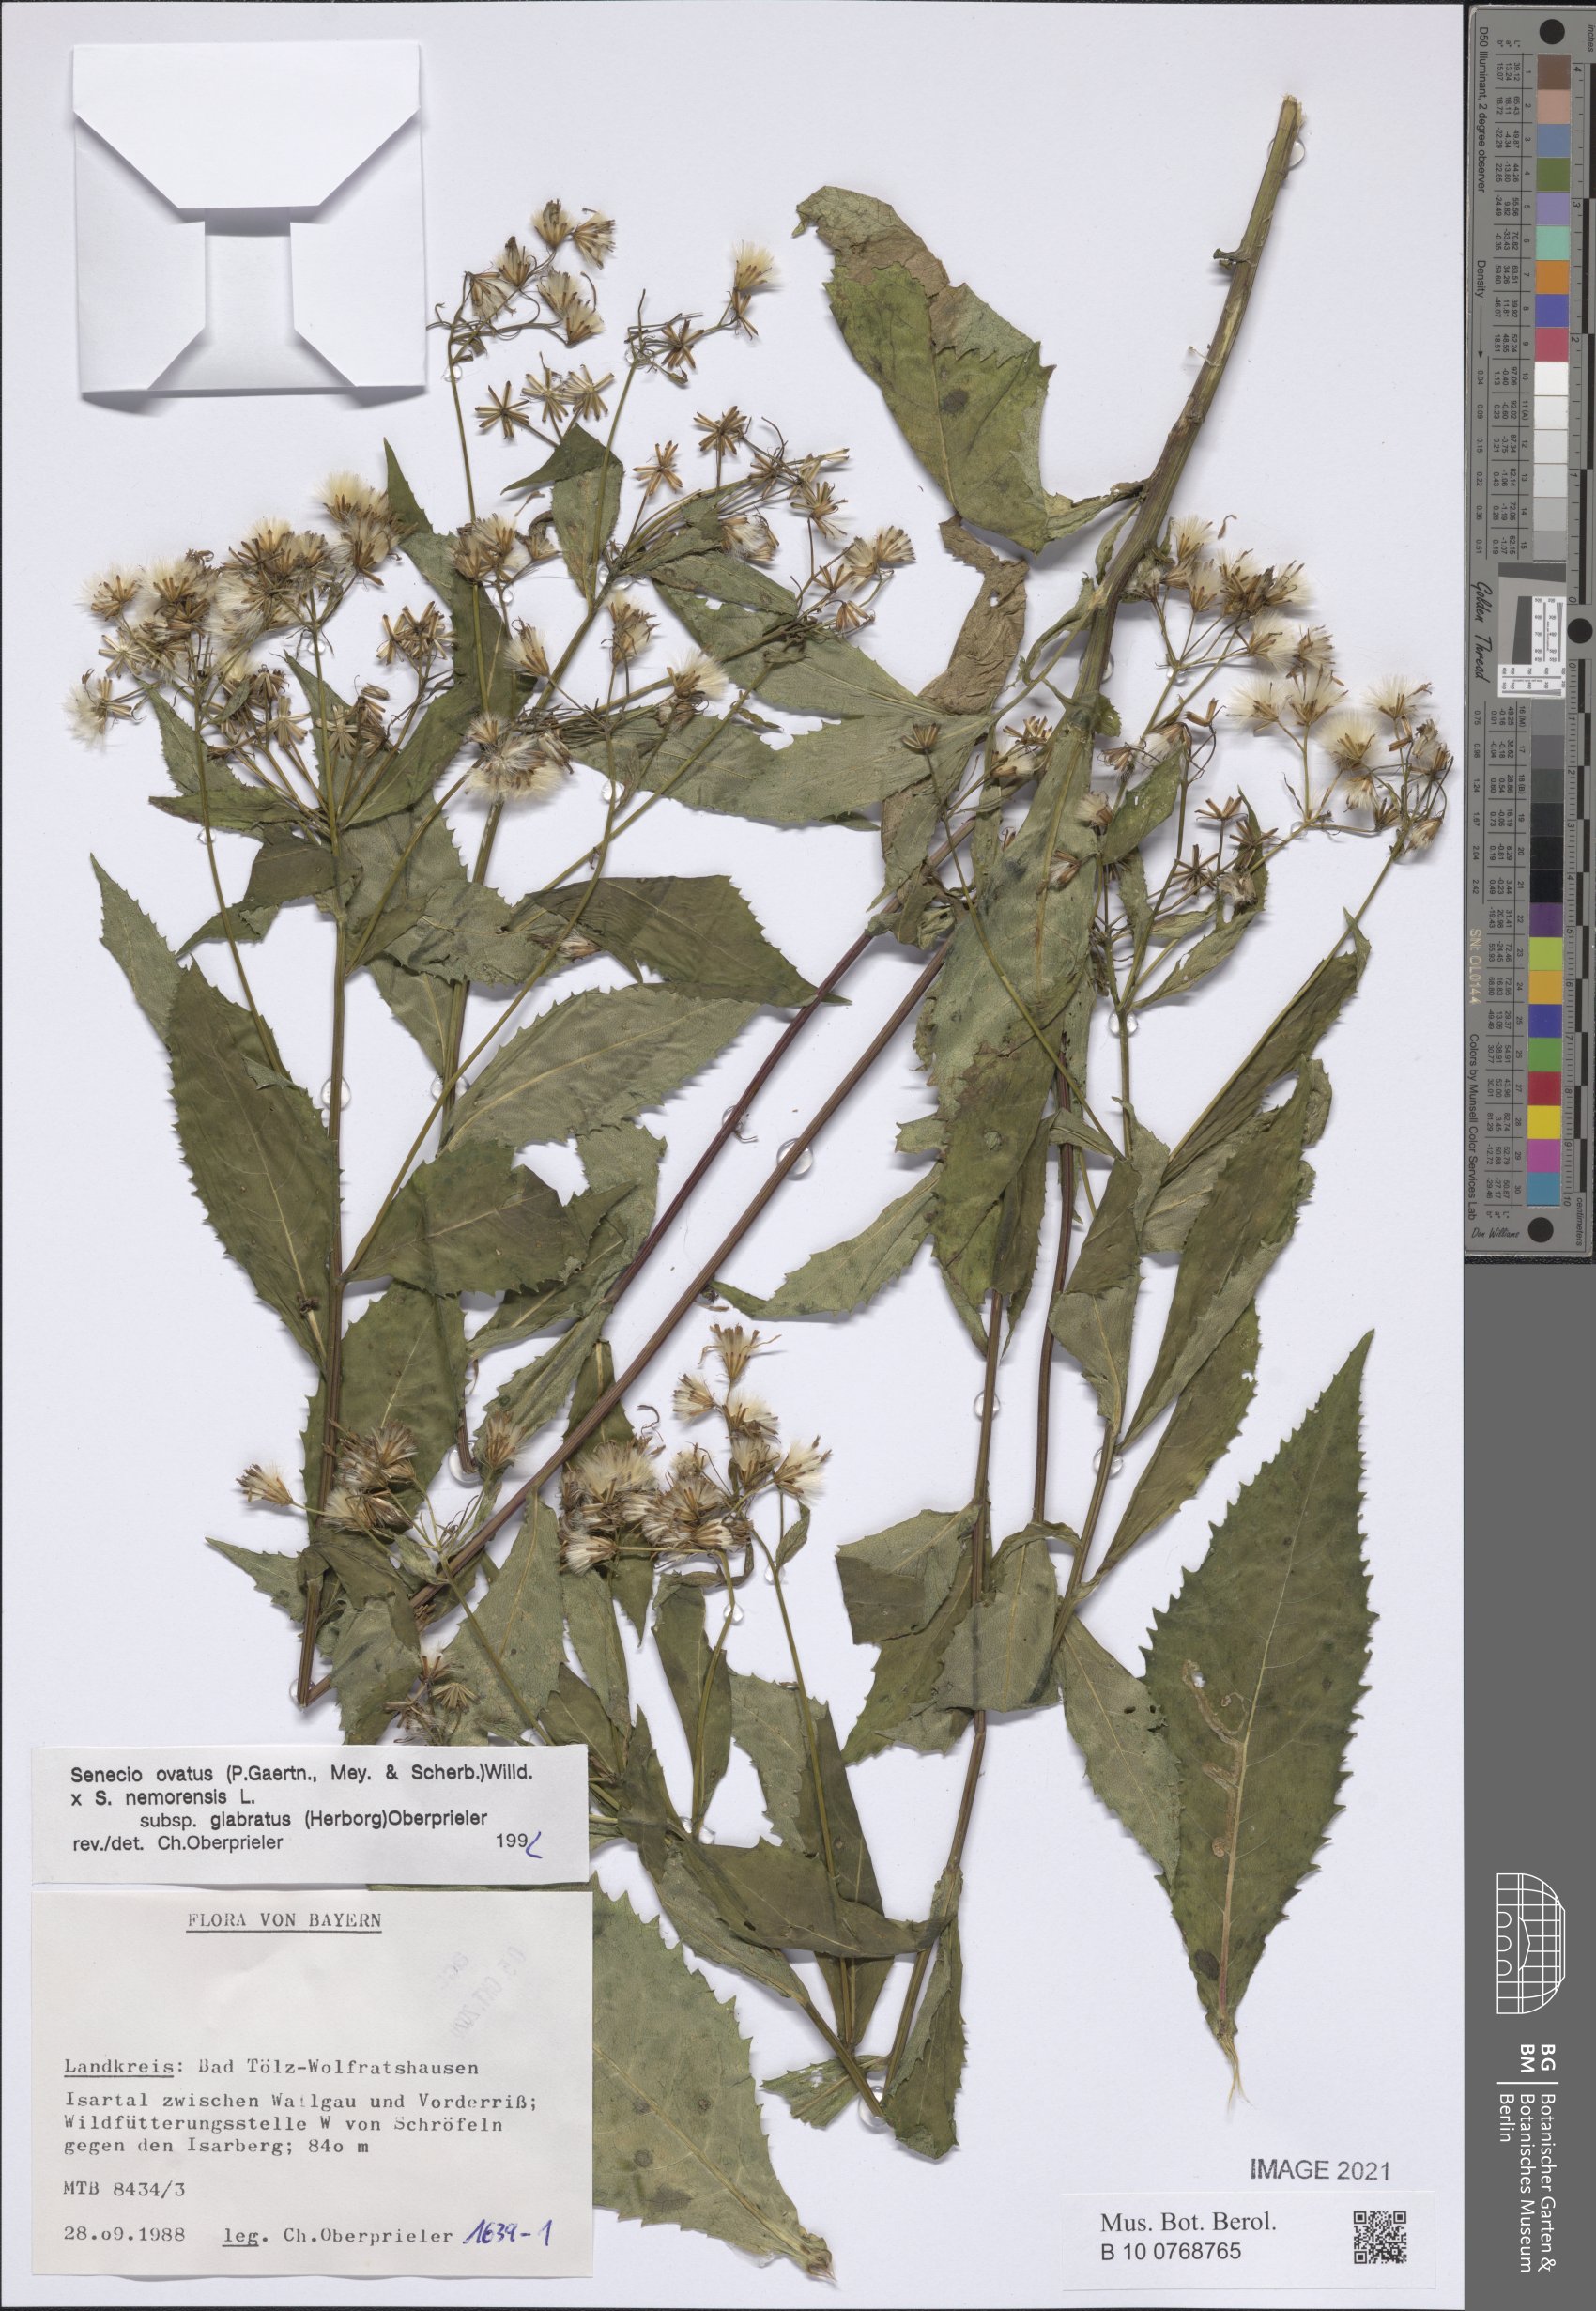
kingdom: Plantae
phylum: Tracheophyta
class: Magnoliopsida
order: Asterales
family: Asteraceae
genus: Senecio
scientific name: Senecio ovatus
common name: Wood ragwort
